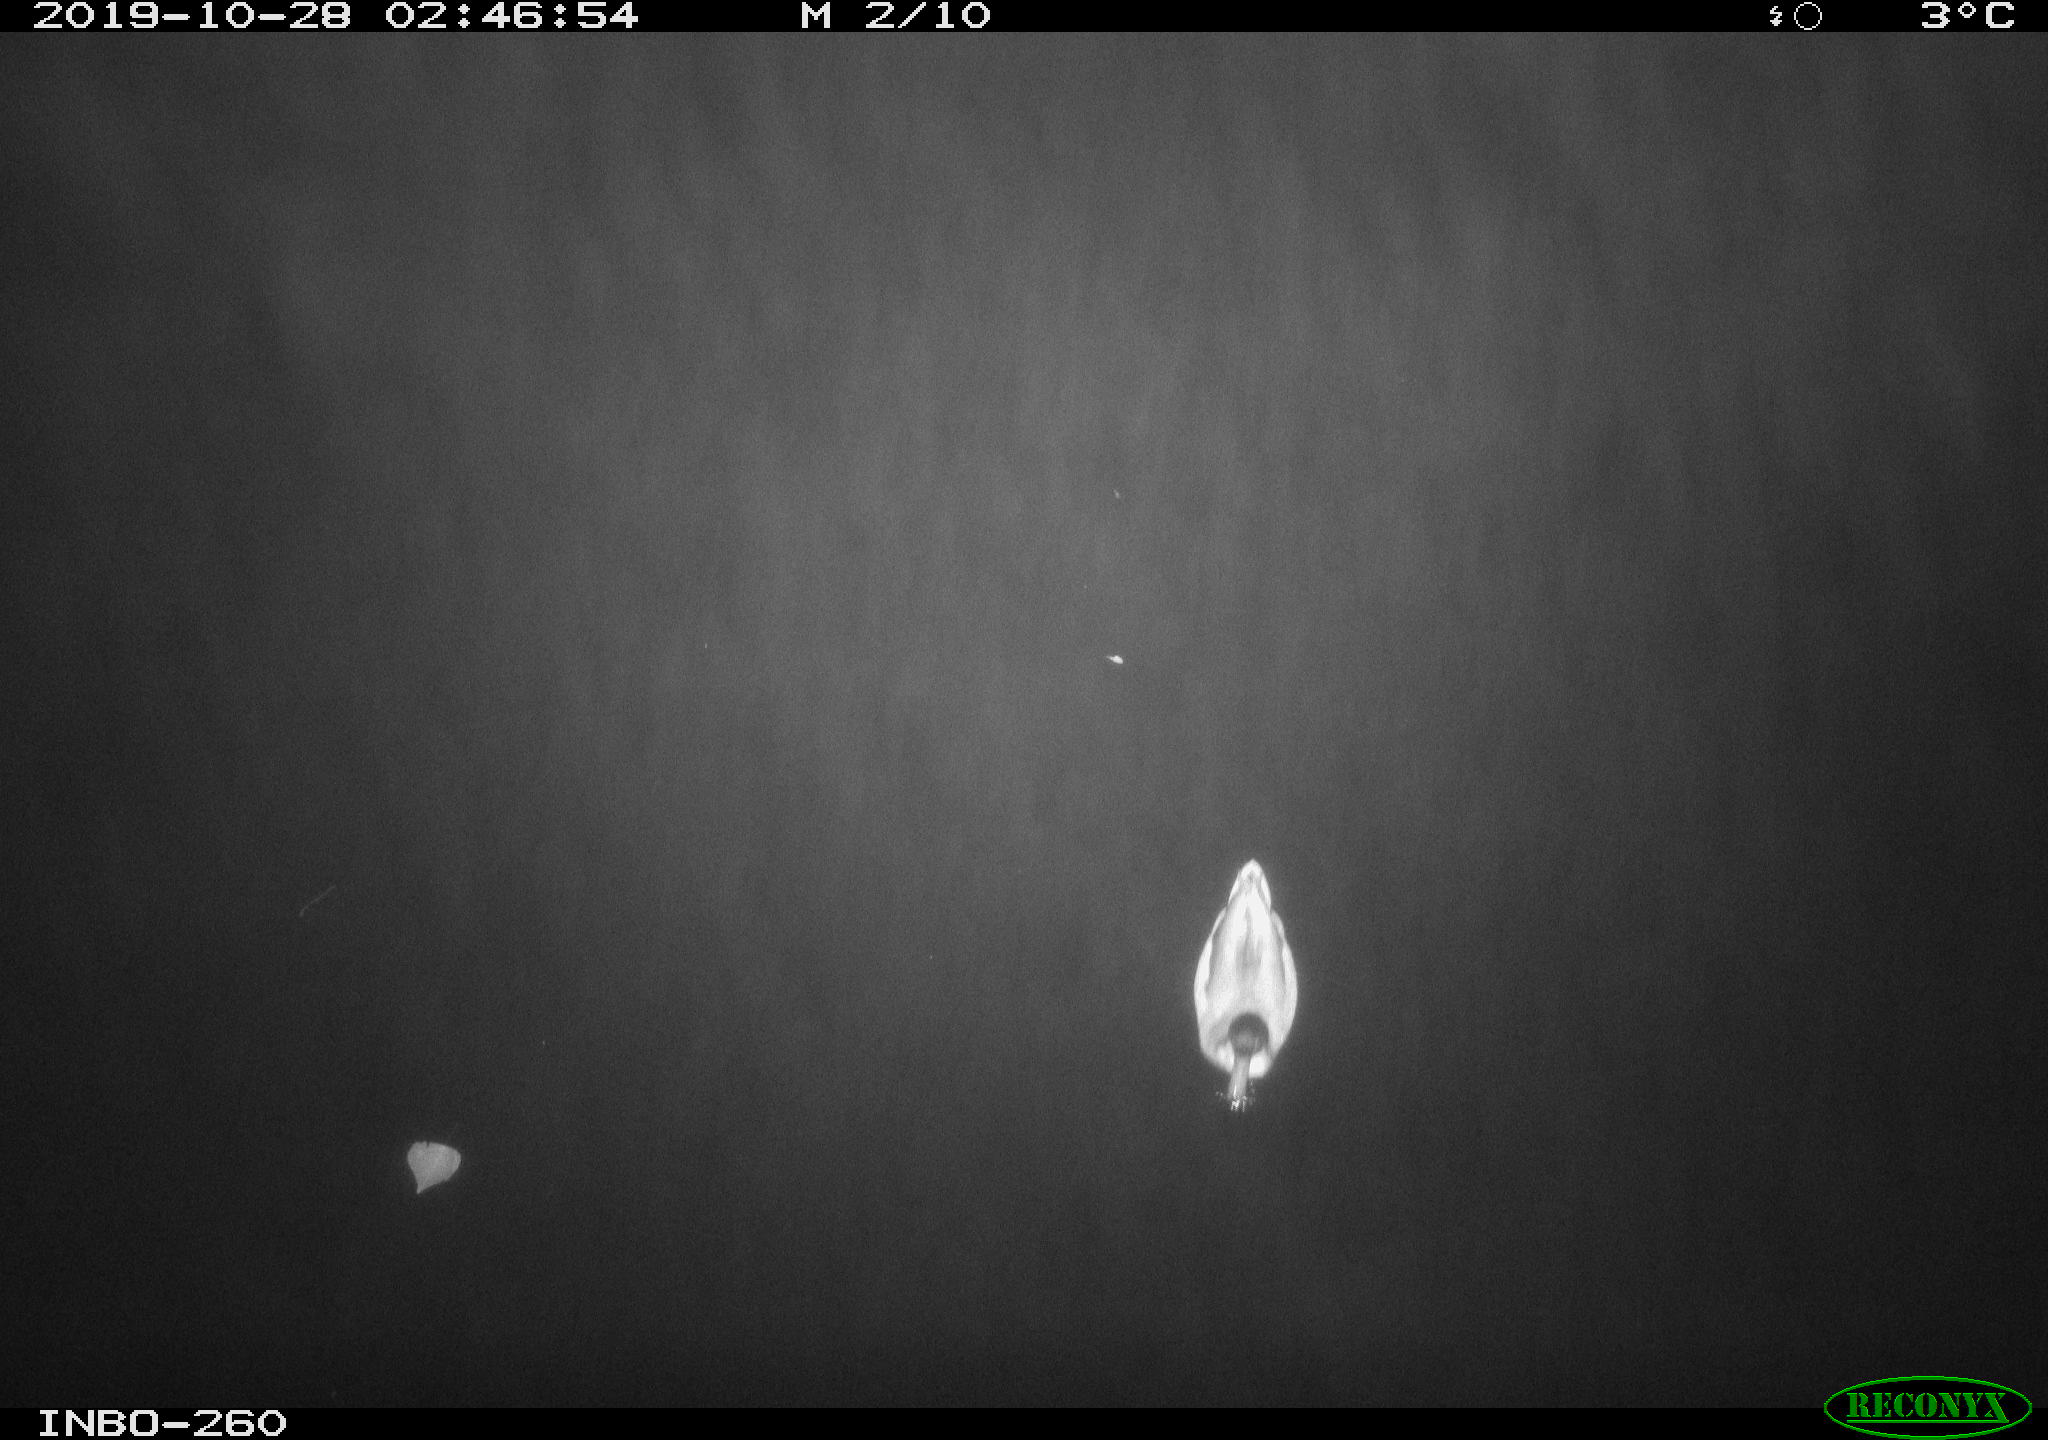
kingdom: Animalia
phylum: Chordata
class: Aves
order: Anseriformes
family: Anatidae
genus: Anas
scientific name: Anas platyrhynchos
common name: Mallard
